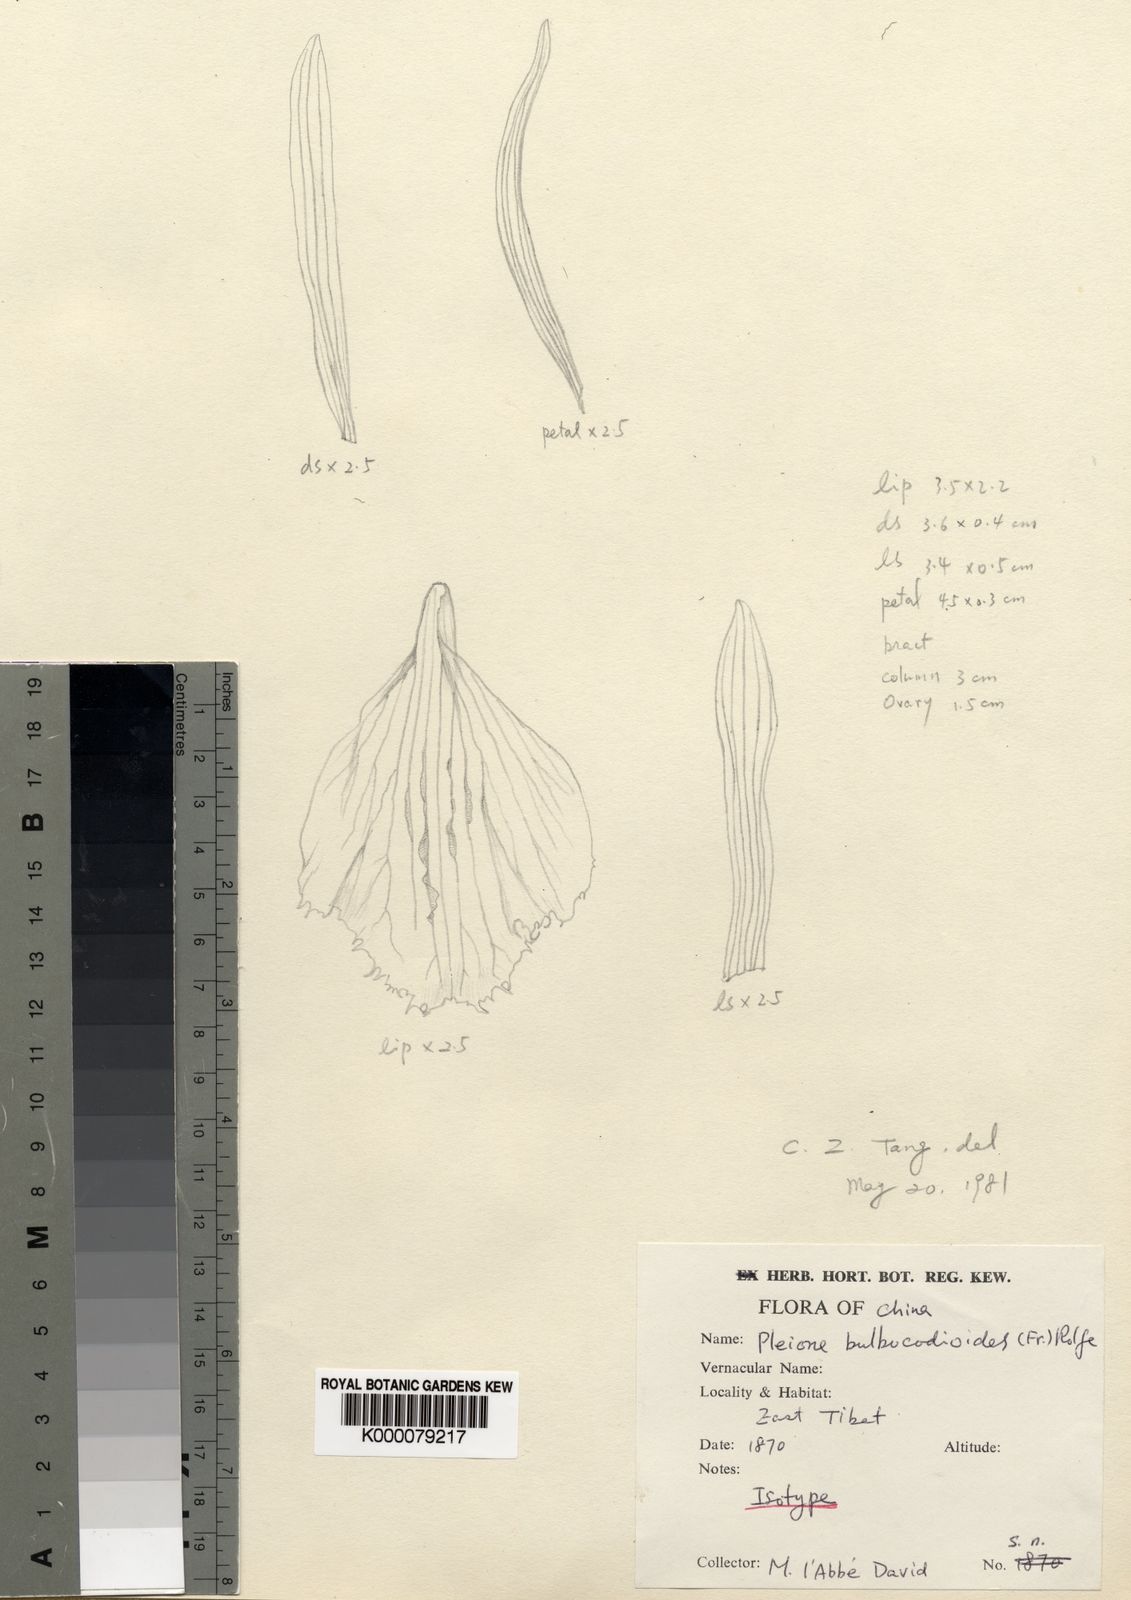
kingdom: Plantae
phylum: Tracheophyta
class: Liliopsida
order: Asparagales
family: Orchidaceae
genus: Pleione
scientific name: Pleione bulbocodioides
